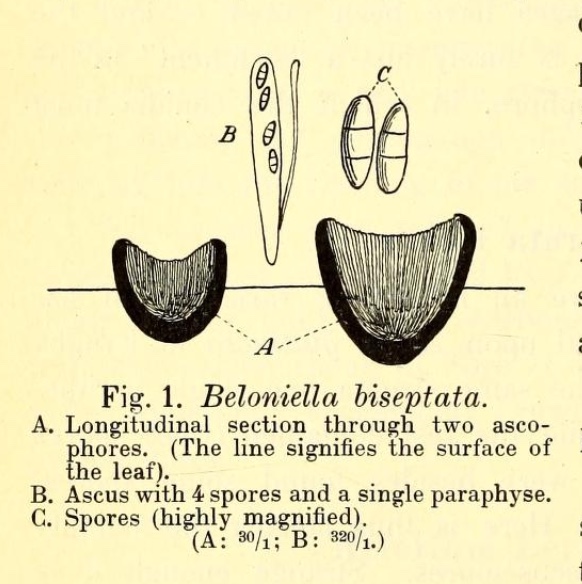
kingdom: Fungi
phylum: Ascomycota
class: Leotiomycetes
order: Helotiales
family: Drepanopezizaceae
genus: Spilopodia
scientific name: Spilopodia biseptata
